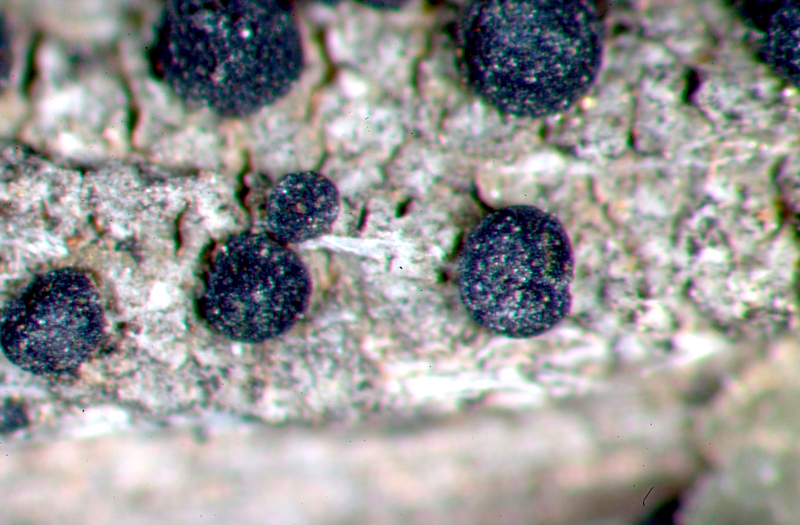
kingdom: Fungi
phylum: Ascomycota
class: Lecanoromycetes
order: Caliciales
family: Caliciaceae
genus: Buellia
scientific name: Buellia
